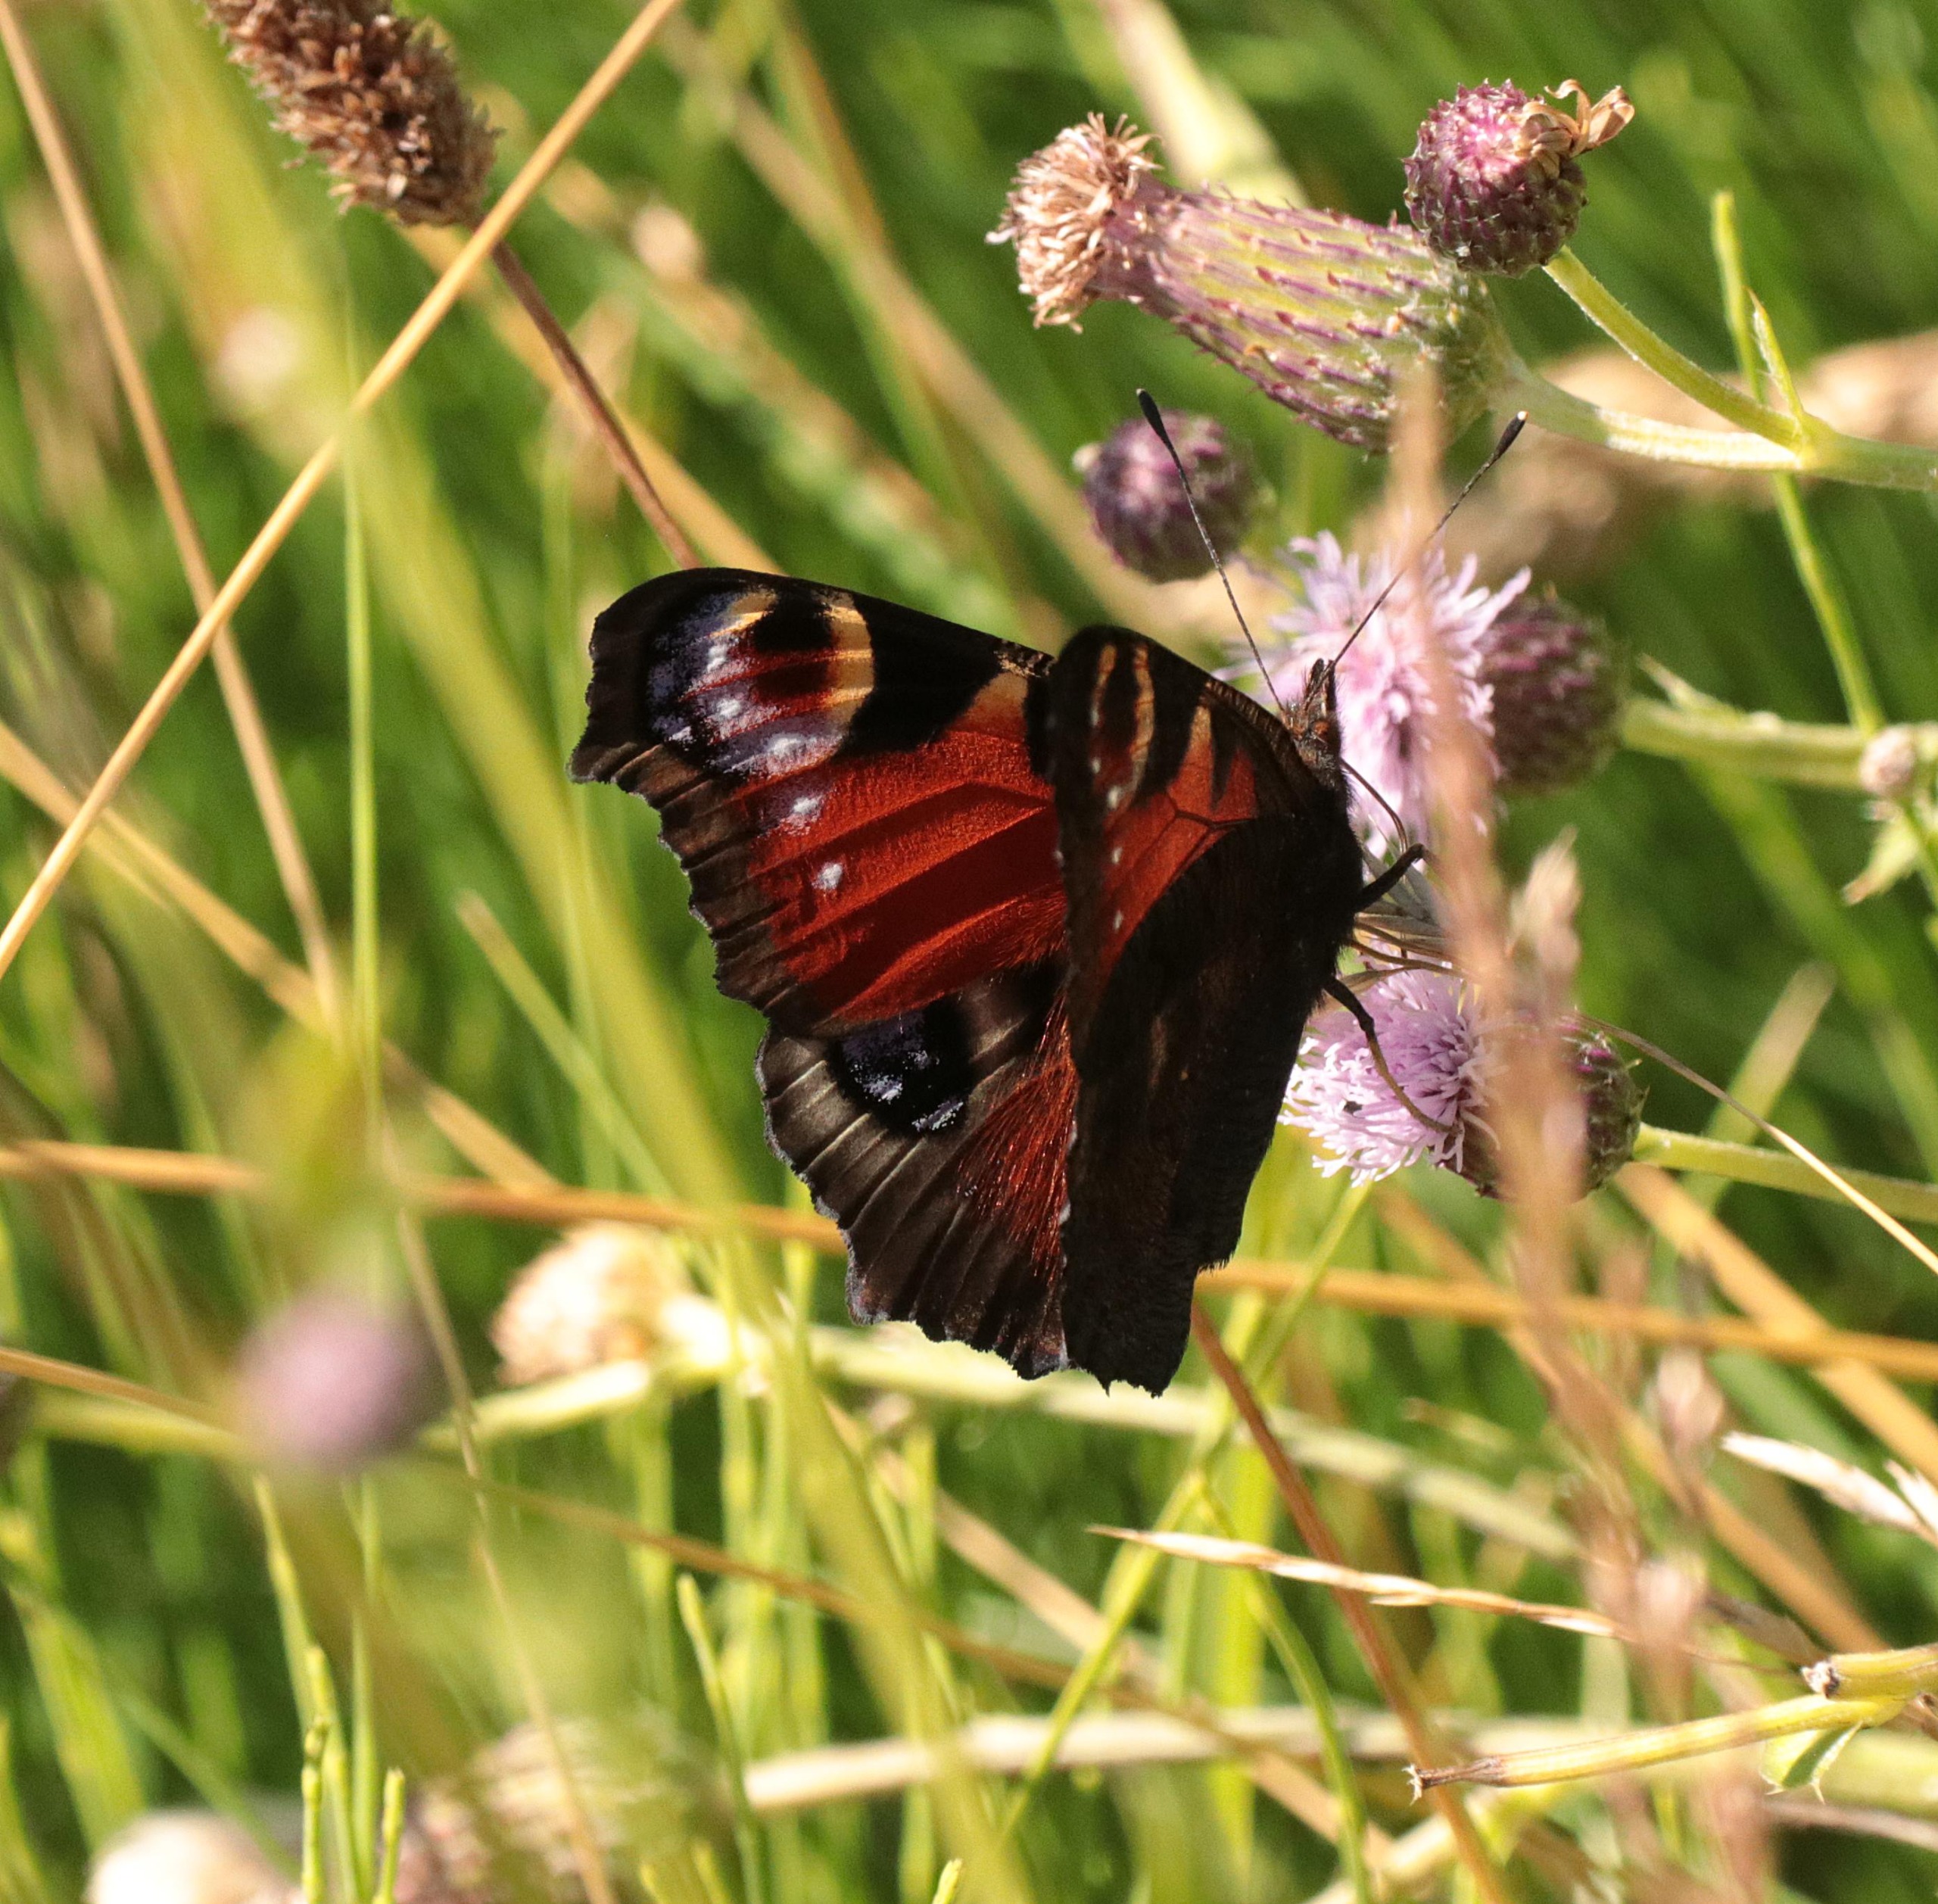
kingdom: Animalia
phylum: Arthropoda
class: Insecta
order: Lepidoptera
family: Nymphalidae
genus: Aglais
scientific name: Aglais io
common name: Dagpåfugleøje
